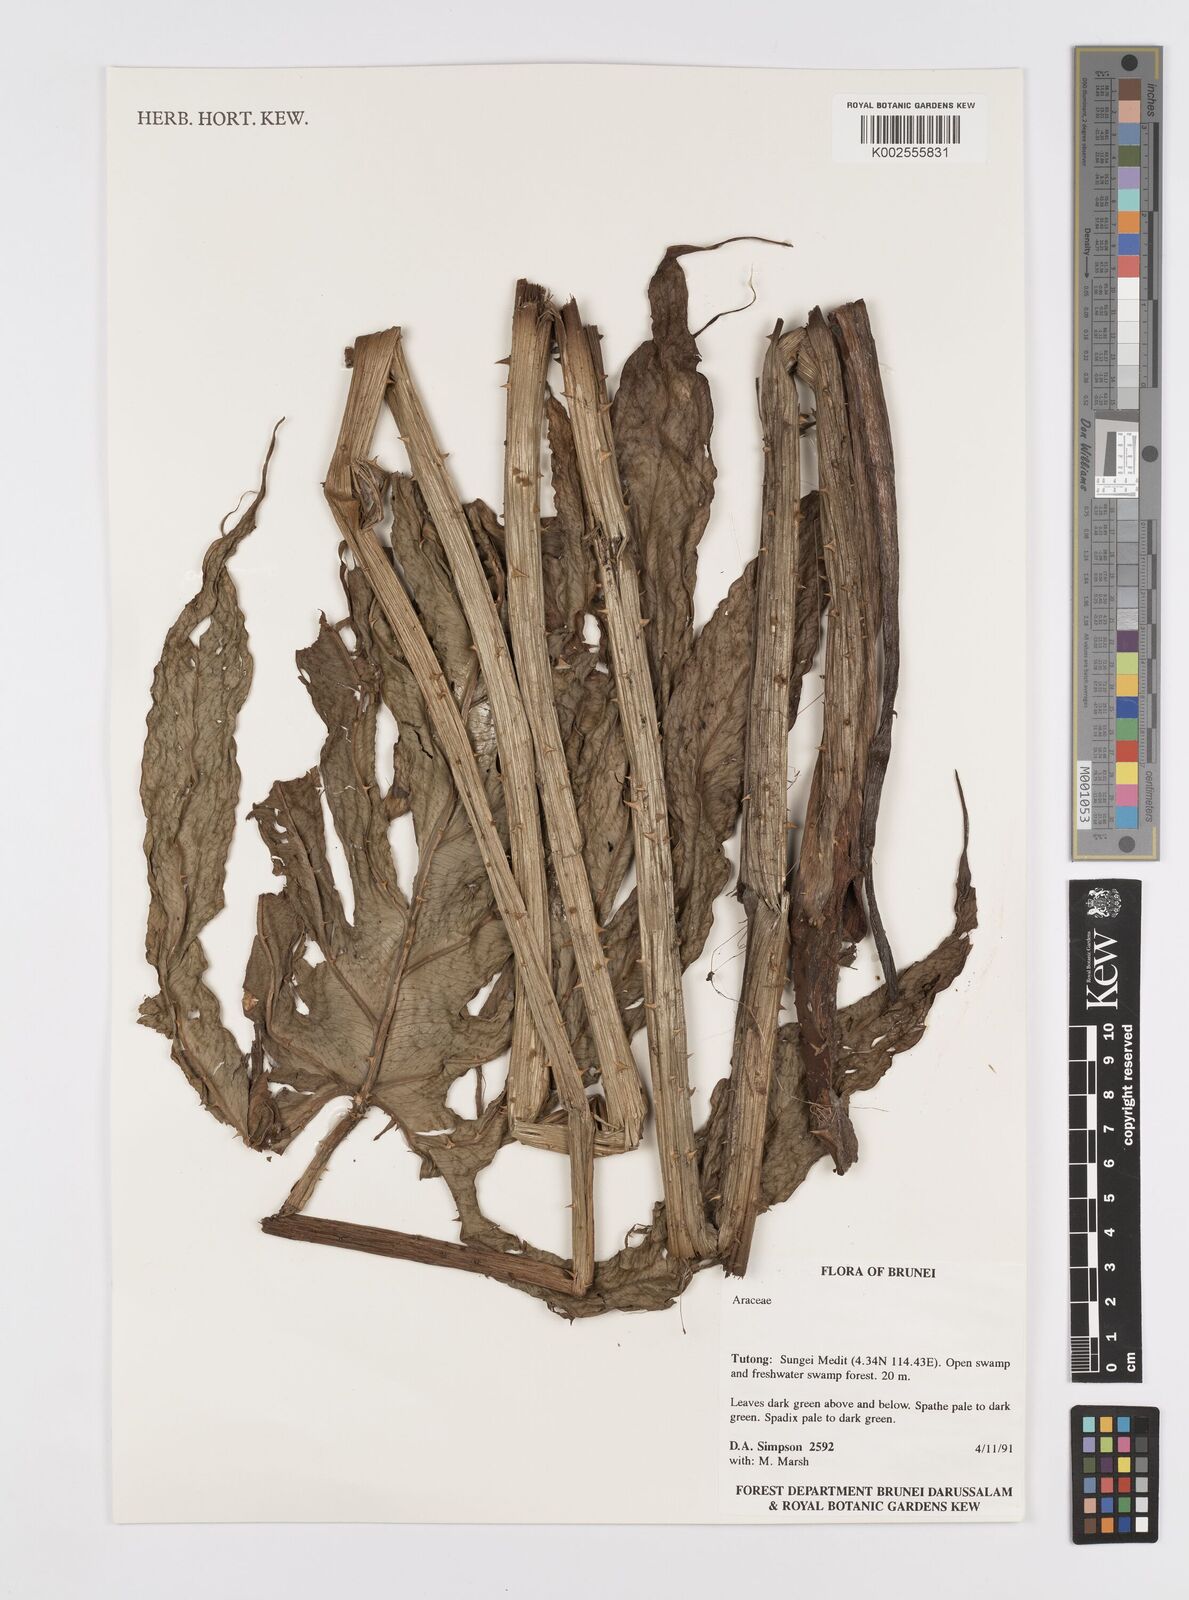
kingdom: Plantae
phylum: Tracheophyta
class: Liliopsida
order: Alismatales
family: Araceae
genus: Lasia
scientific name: Lasia spinosa
